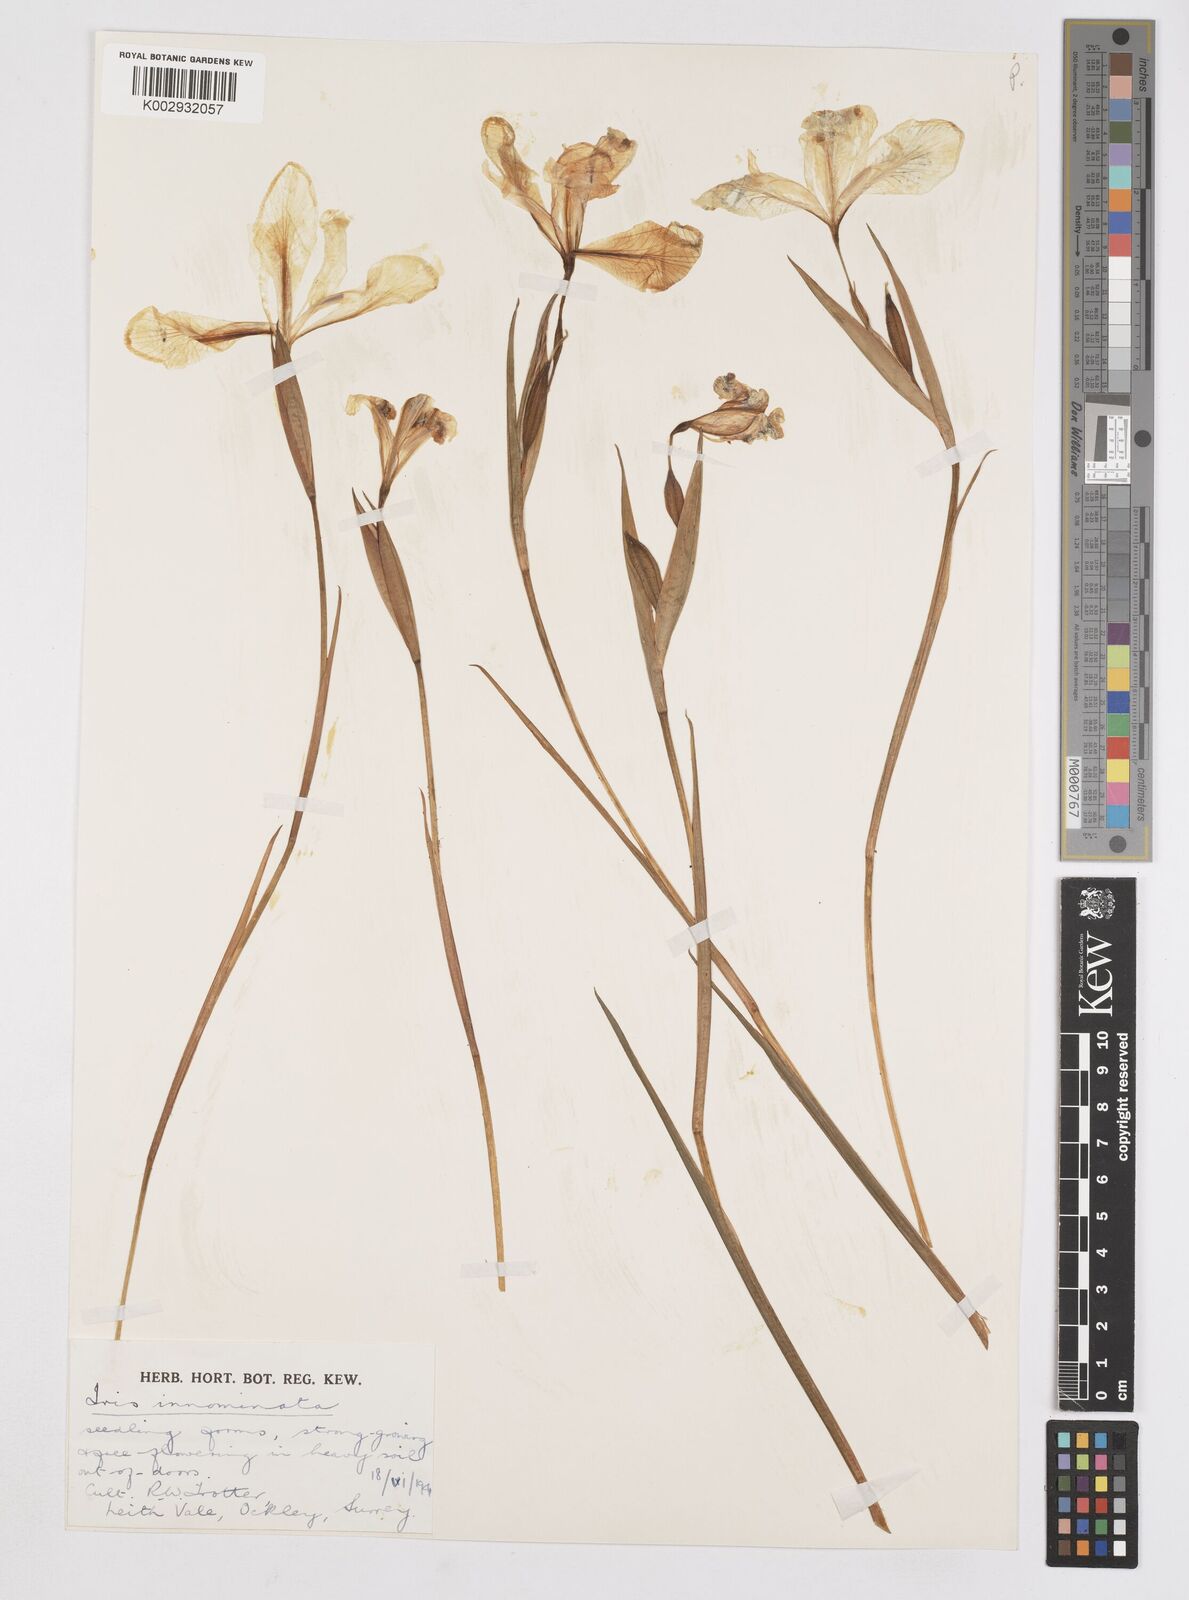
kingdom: Plantae
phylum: Tracheophyta
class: Liliopsida
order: Asparagales
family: Iridaceae
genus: Iris
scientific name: Iris innominata
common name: Del norte county iris
